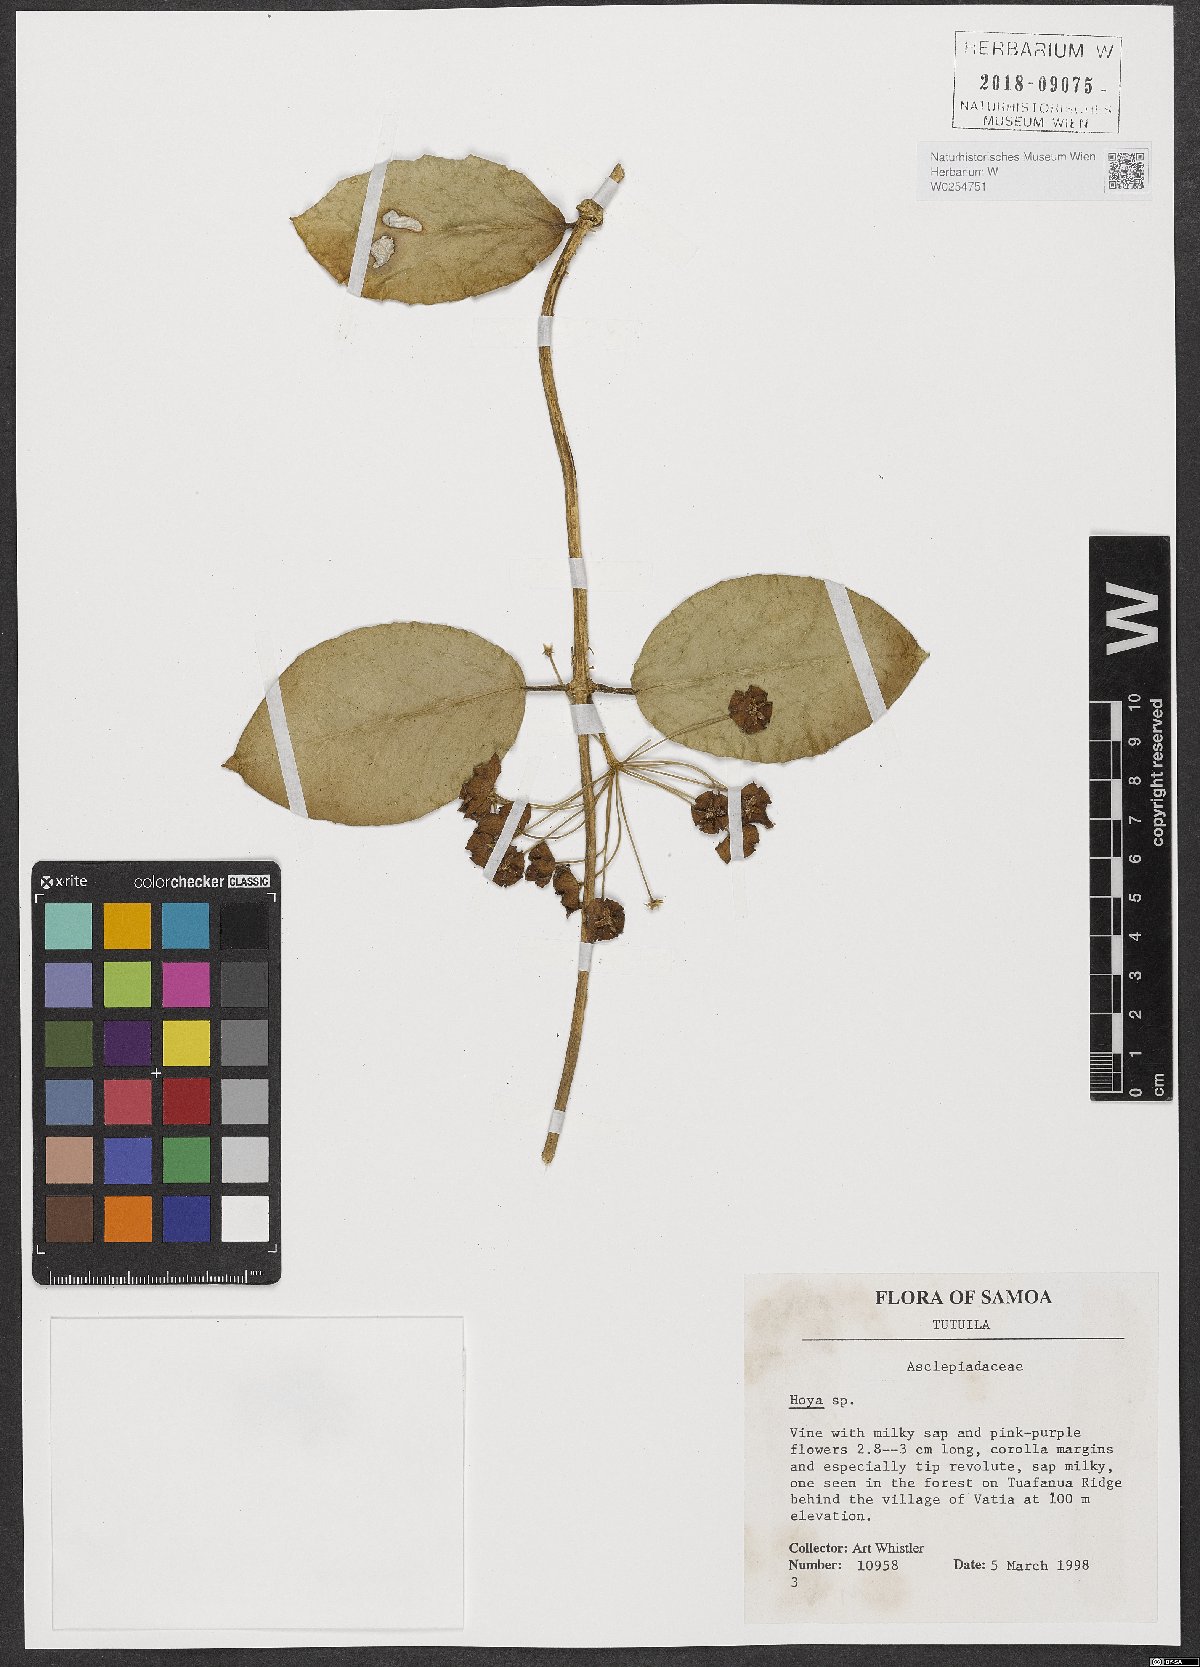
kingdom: Plantae
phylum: Tracheophyta
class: Magnoliopsida
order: Gentianales
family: Apocynaceae
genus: Hoya
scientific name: Hoya
